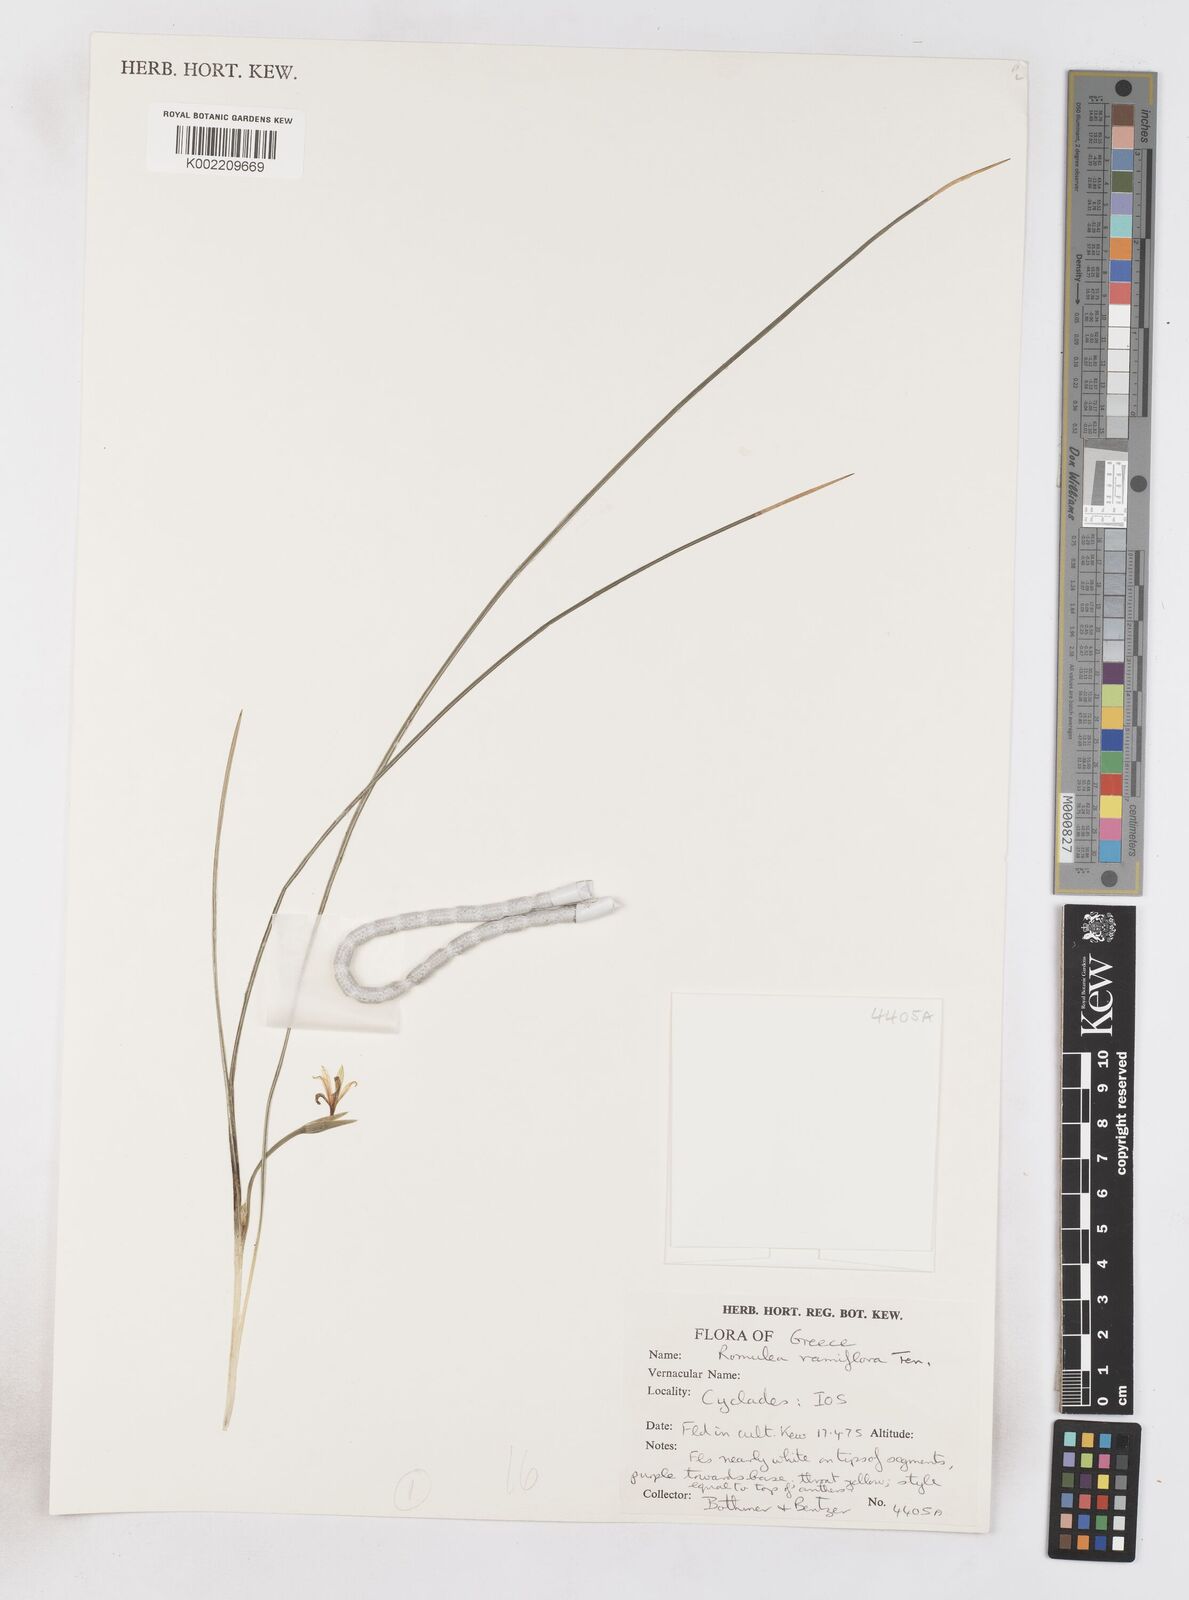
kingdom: Plantae
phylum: Tracheophyta
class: Liliopsida
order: Asparagales
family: Iridaceae
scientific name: Iridaceae
